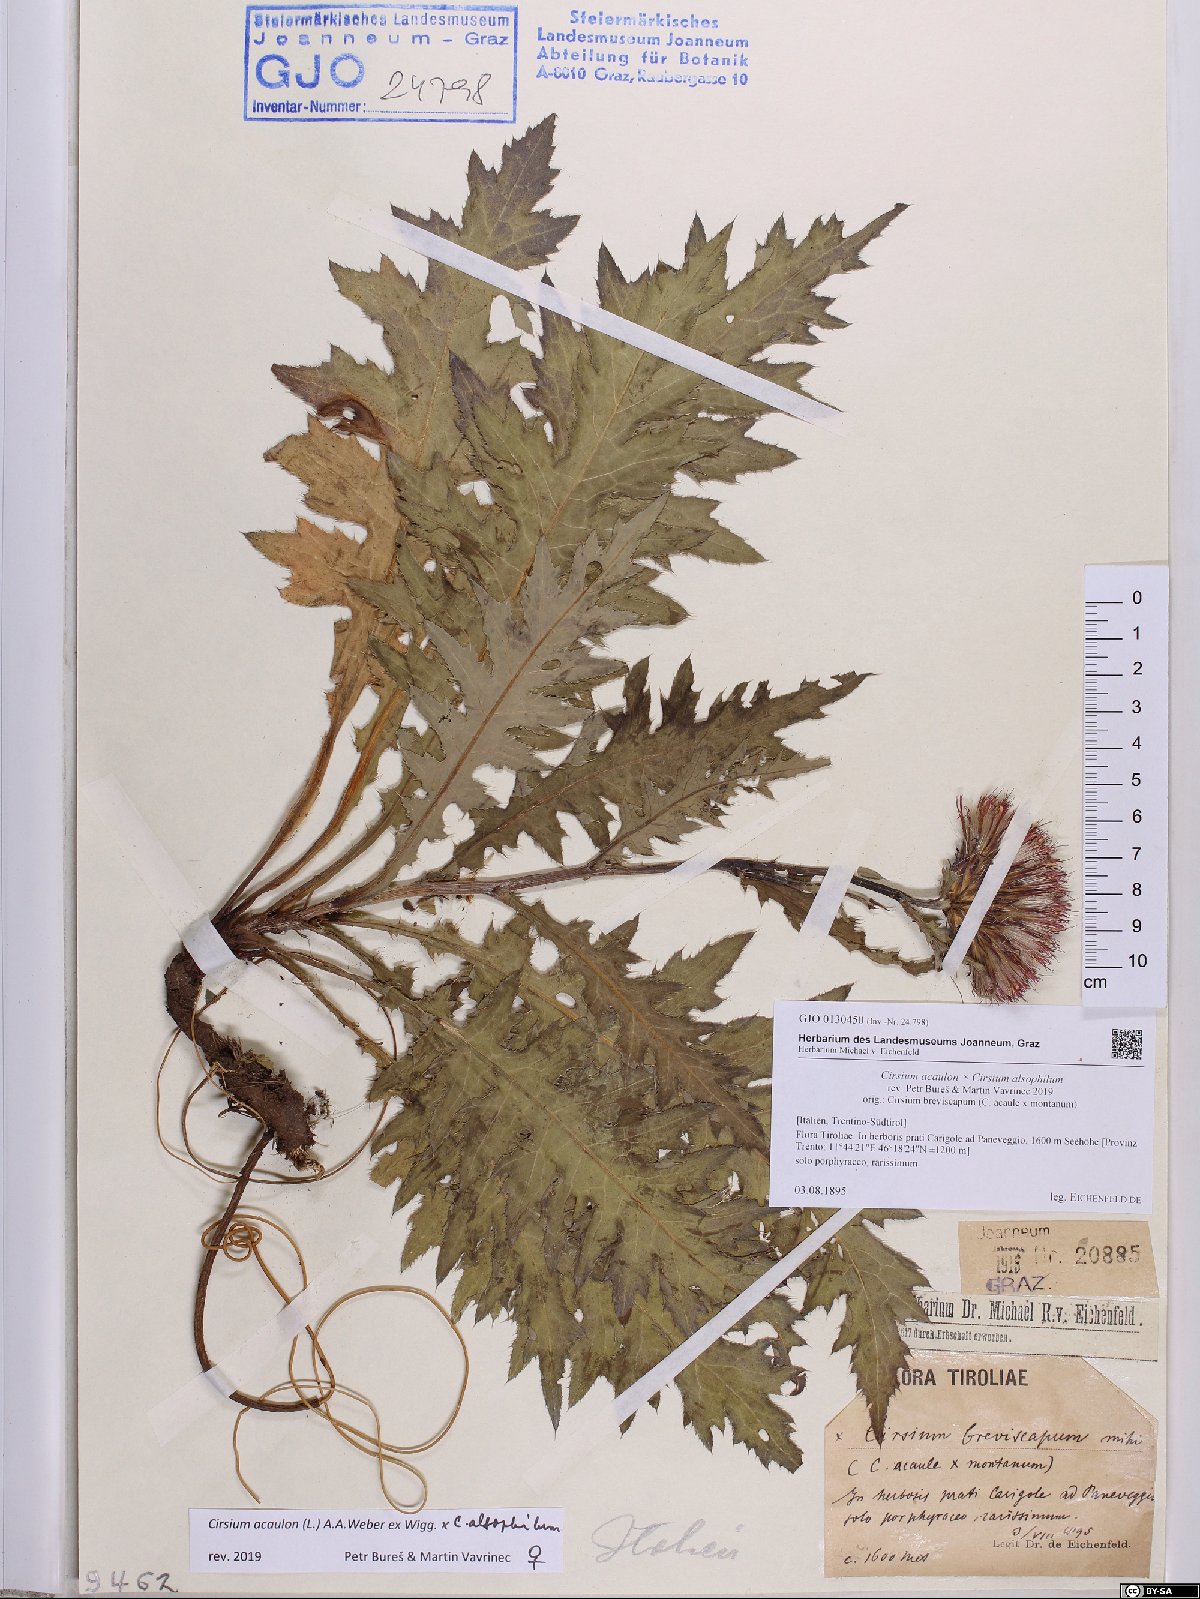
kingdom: Plantae
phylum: Tracheophyta
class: Magnoliopsida
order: Asterales
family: Asteraceae
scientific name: Asteraceae
